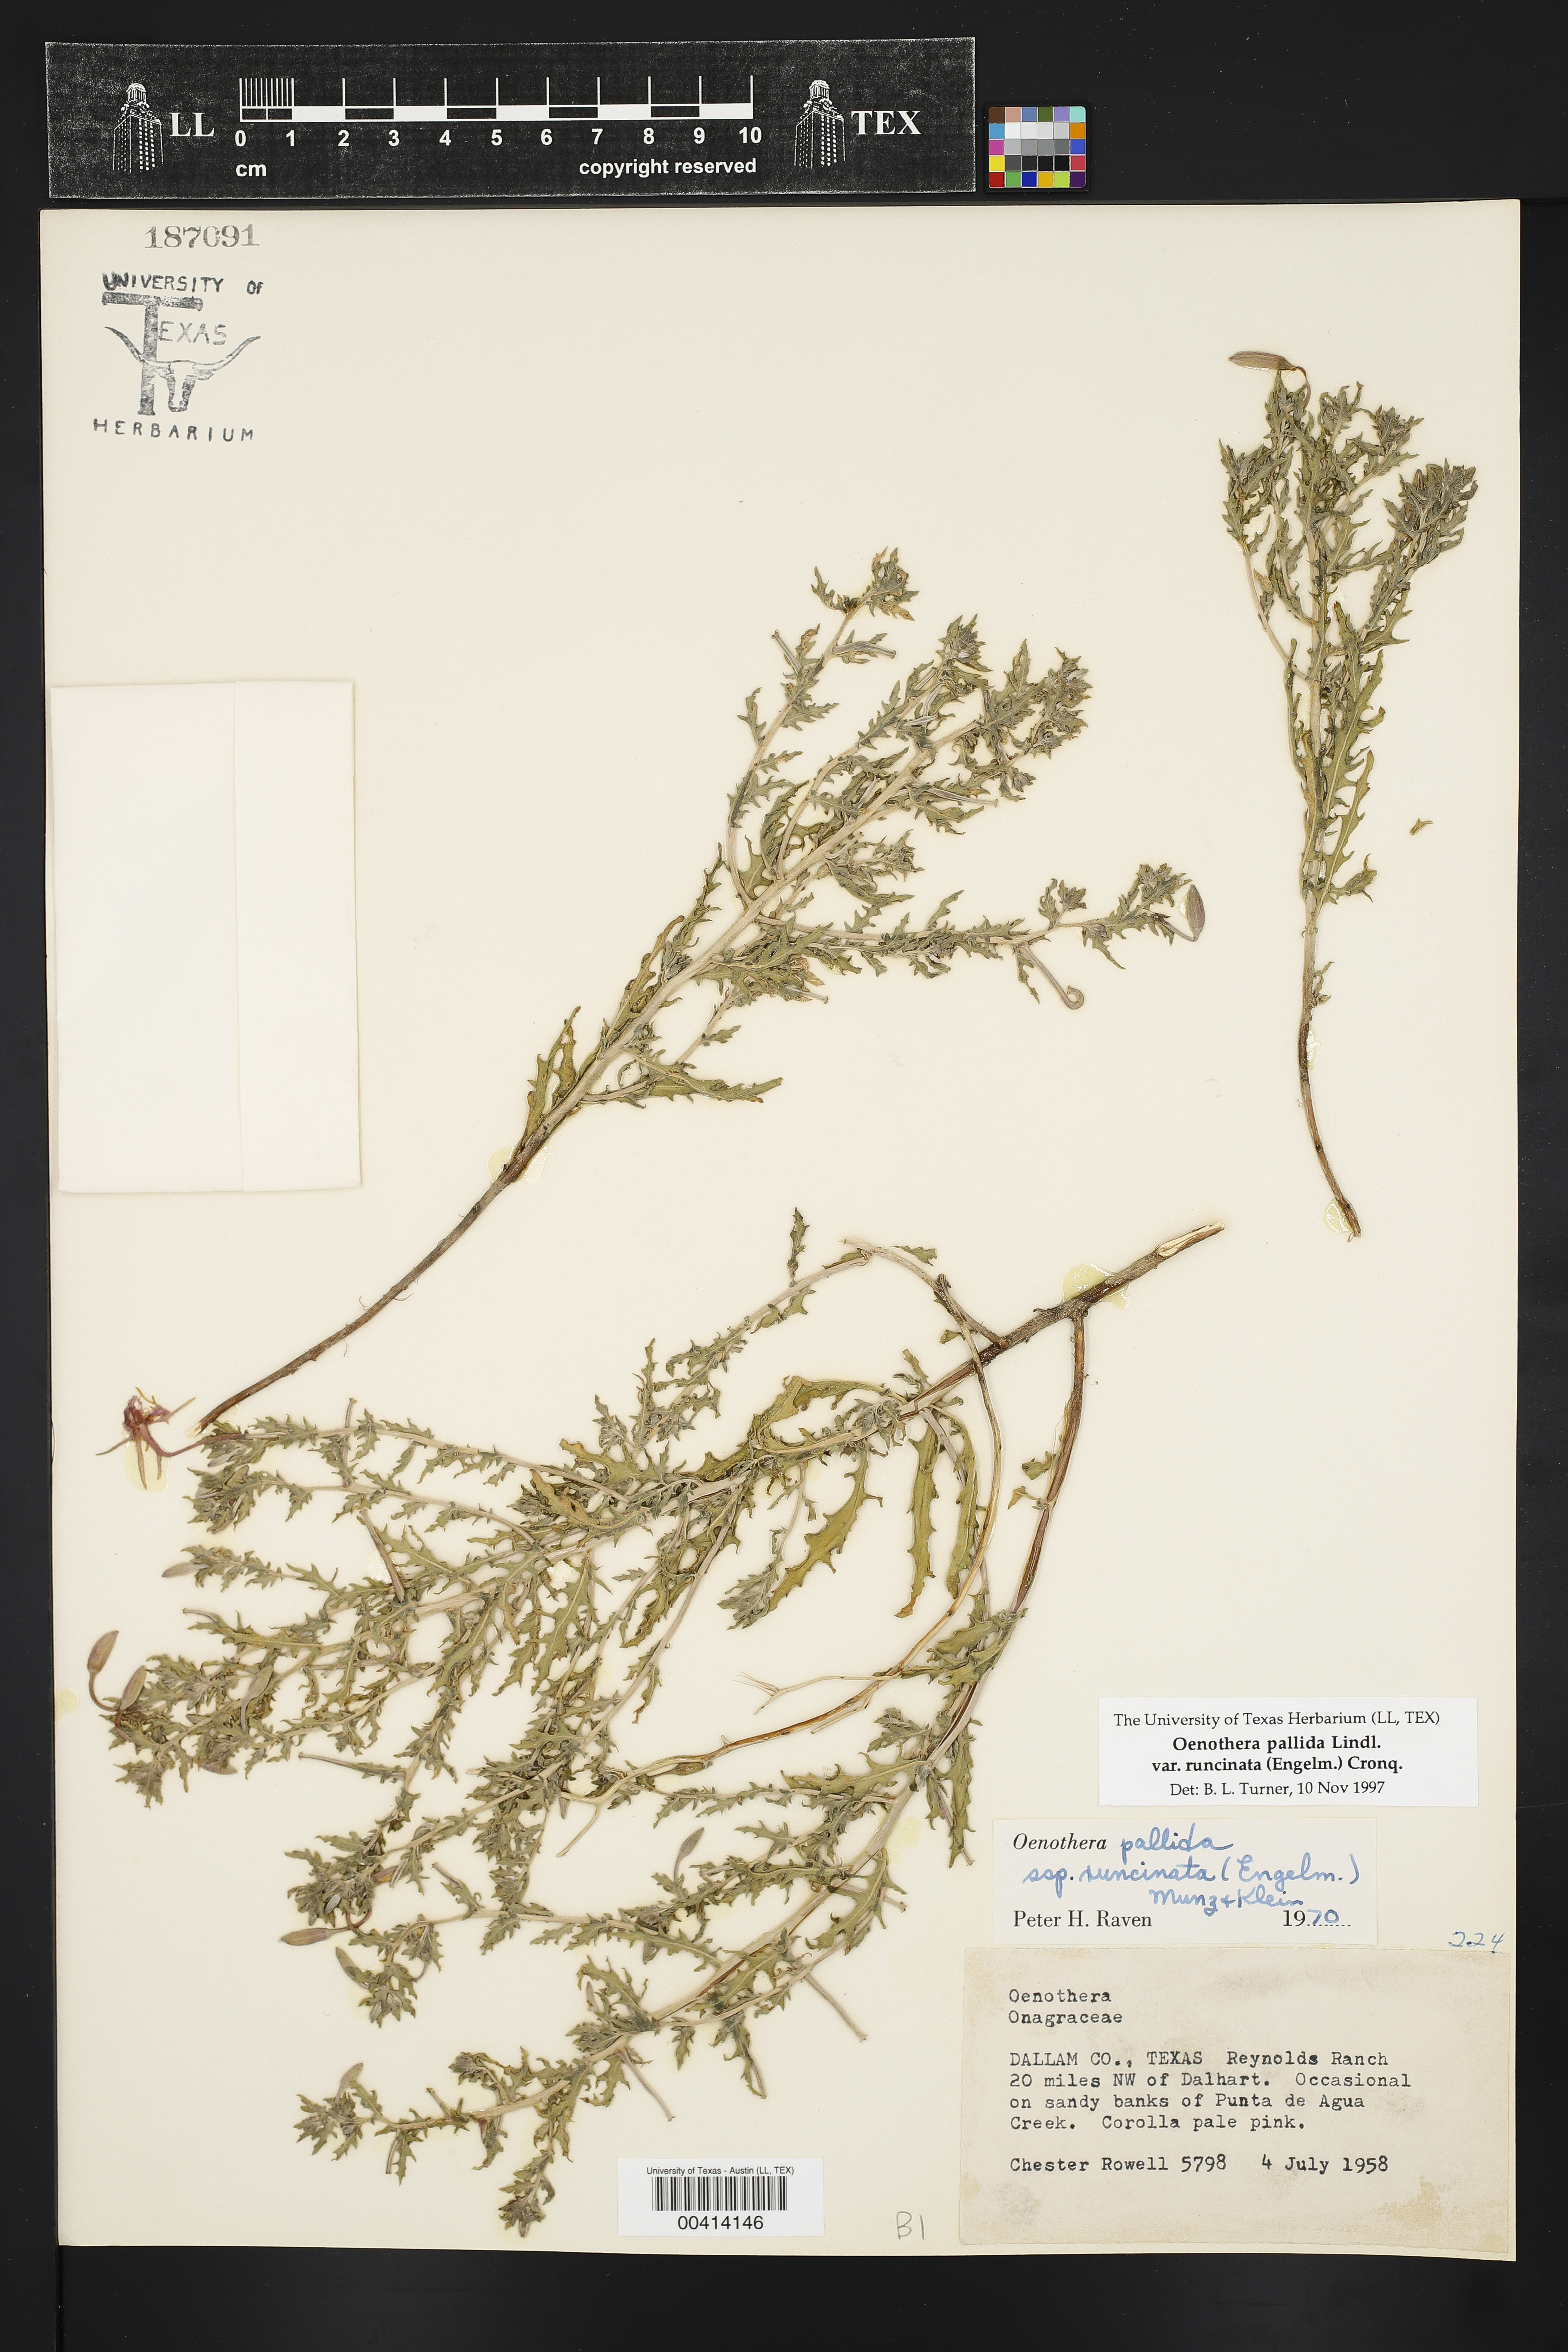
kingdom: Plantae
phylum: Tracheophyta
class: Magnoliopsida
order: Myrtales
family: Onagraceae
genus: Oenothera
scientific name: Oenothera pallida
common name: Pale evening-primrose
